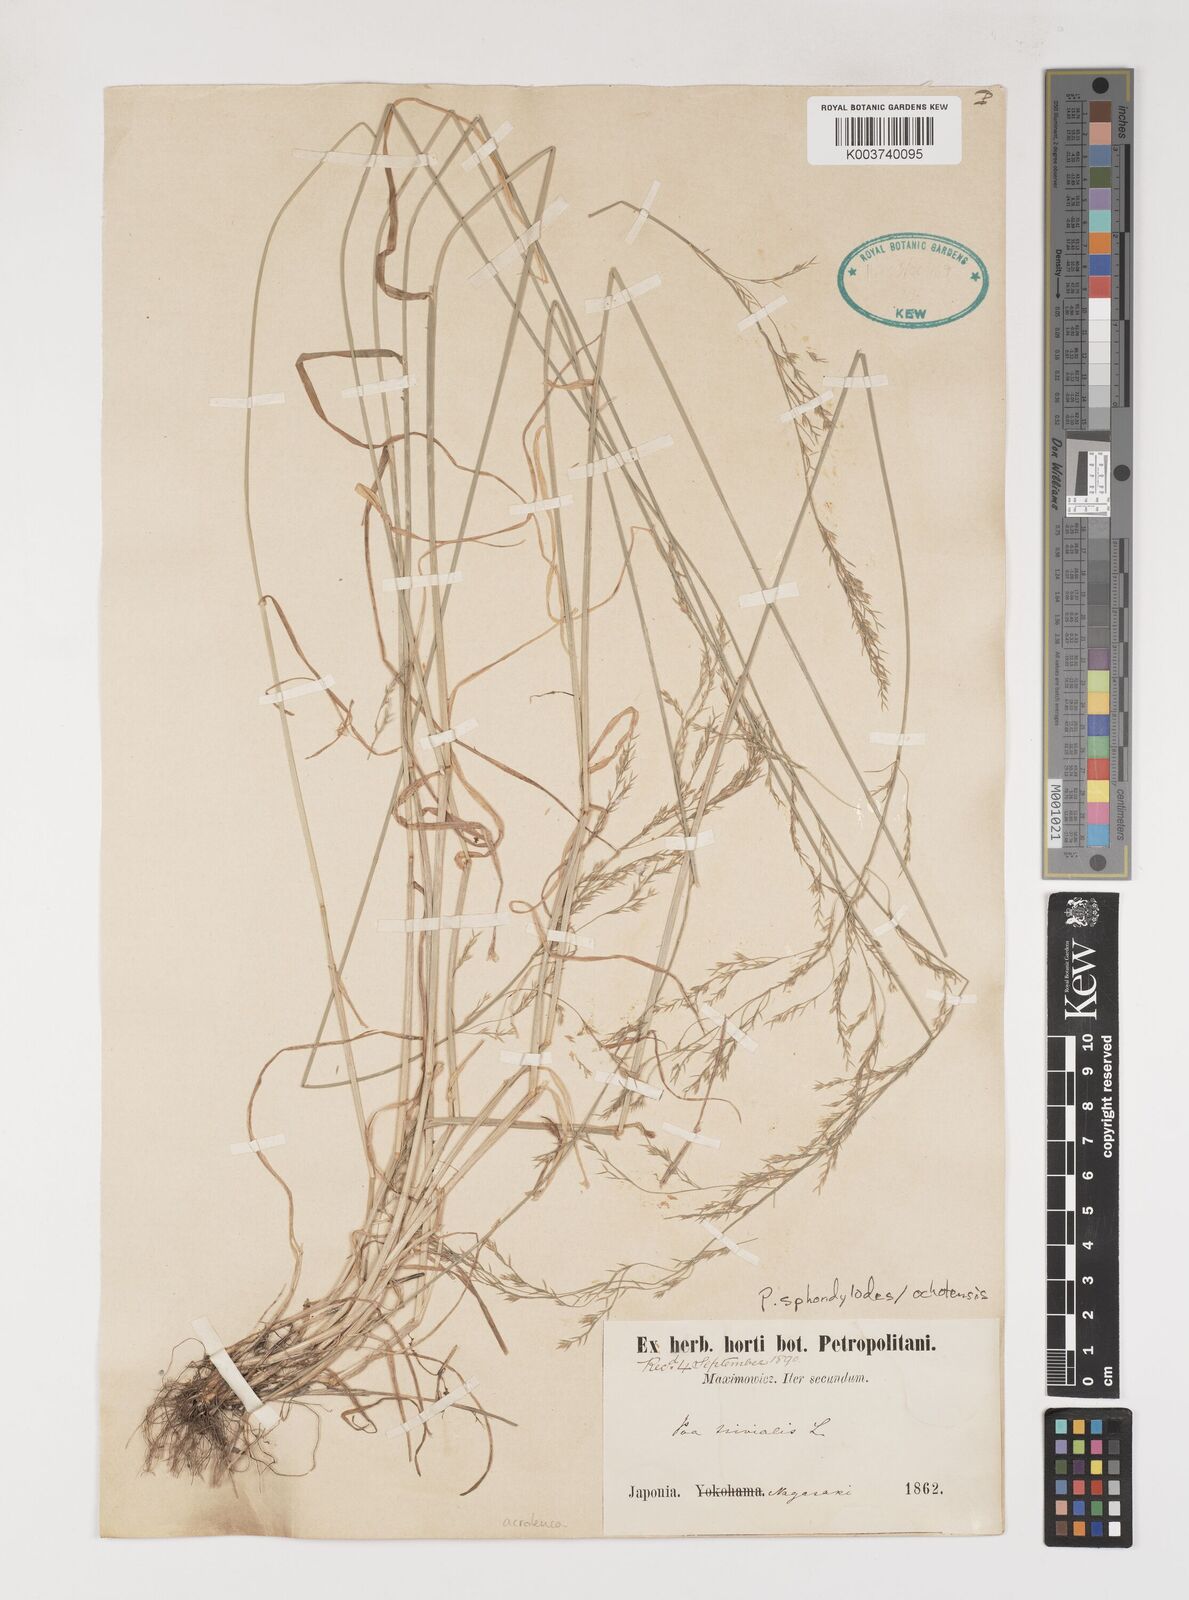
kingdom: Plantae
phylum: Tracheophyta
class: Liliopsida
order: Poales
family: Poaceae
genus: Poa
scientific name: Poa
